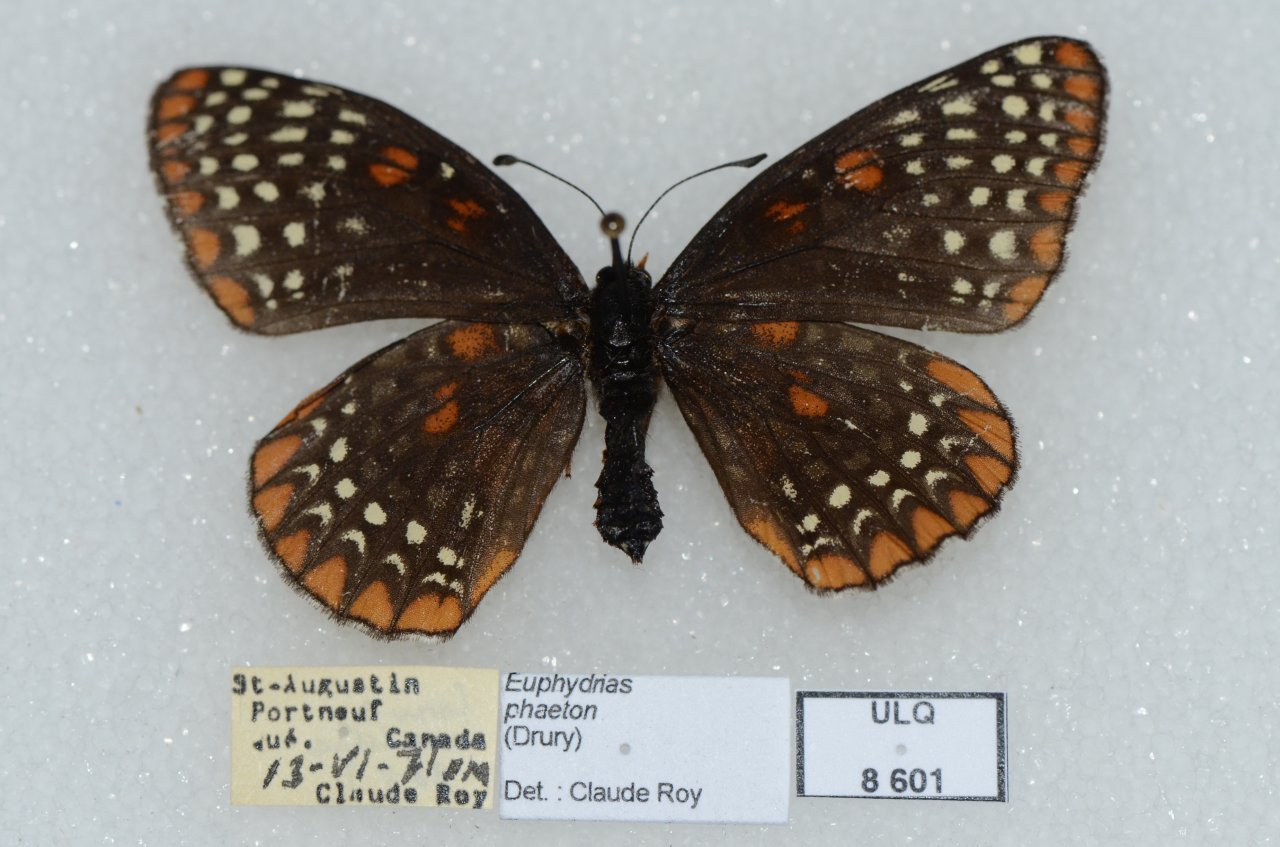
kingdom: Animalia
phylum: Arthropoda
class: Insecta
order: Lepidoptera
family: Nymphalidae
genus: Euphydryas
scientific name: Euphydryas phaeton
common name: Baltimore Checkerspot
